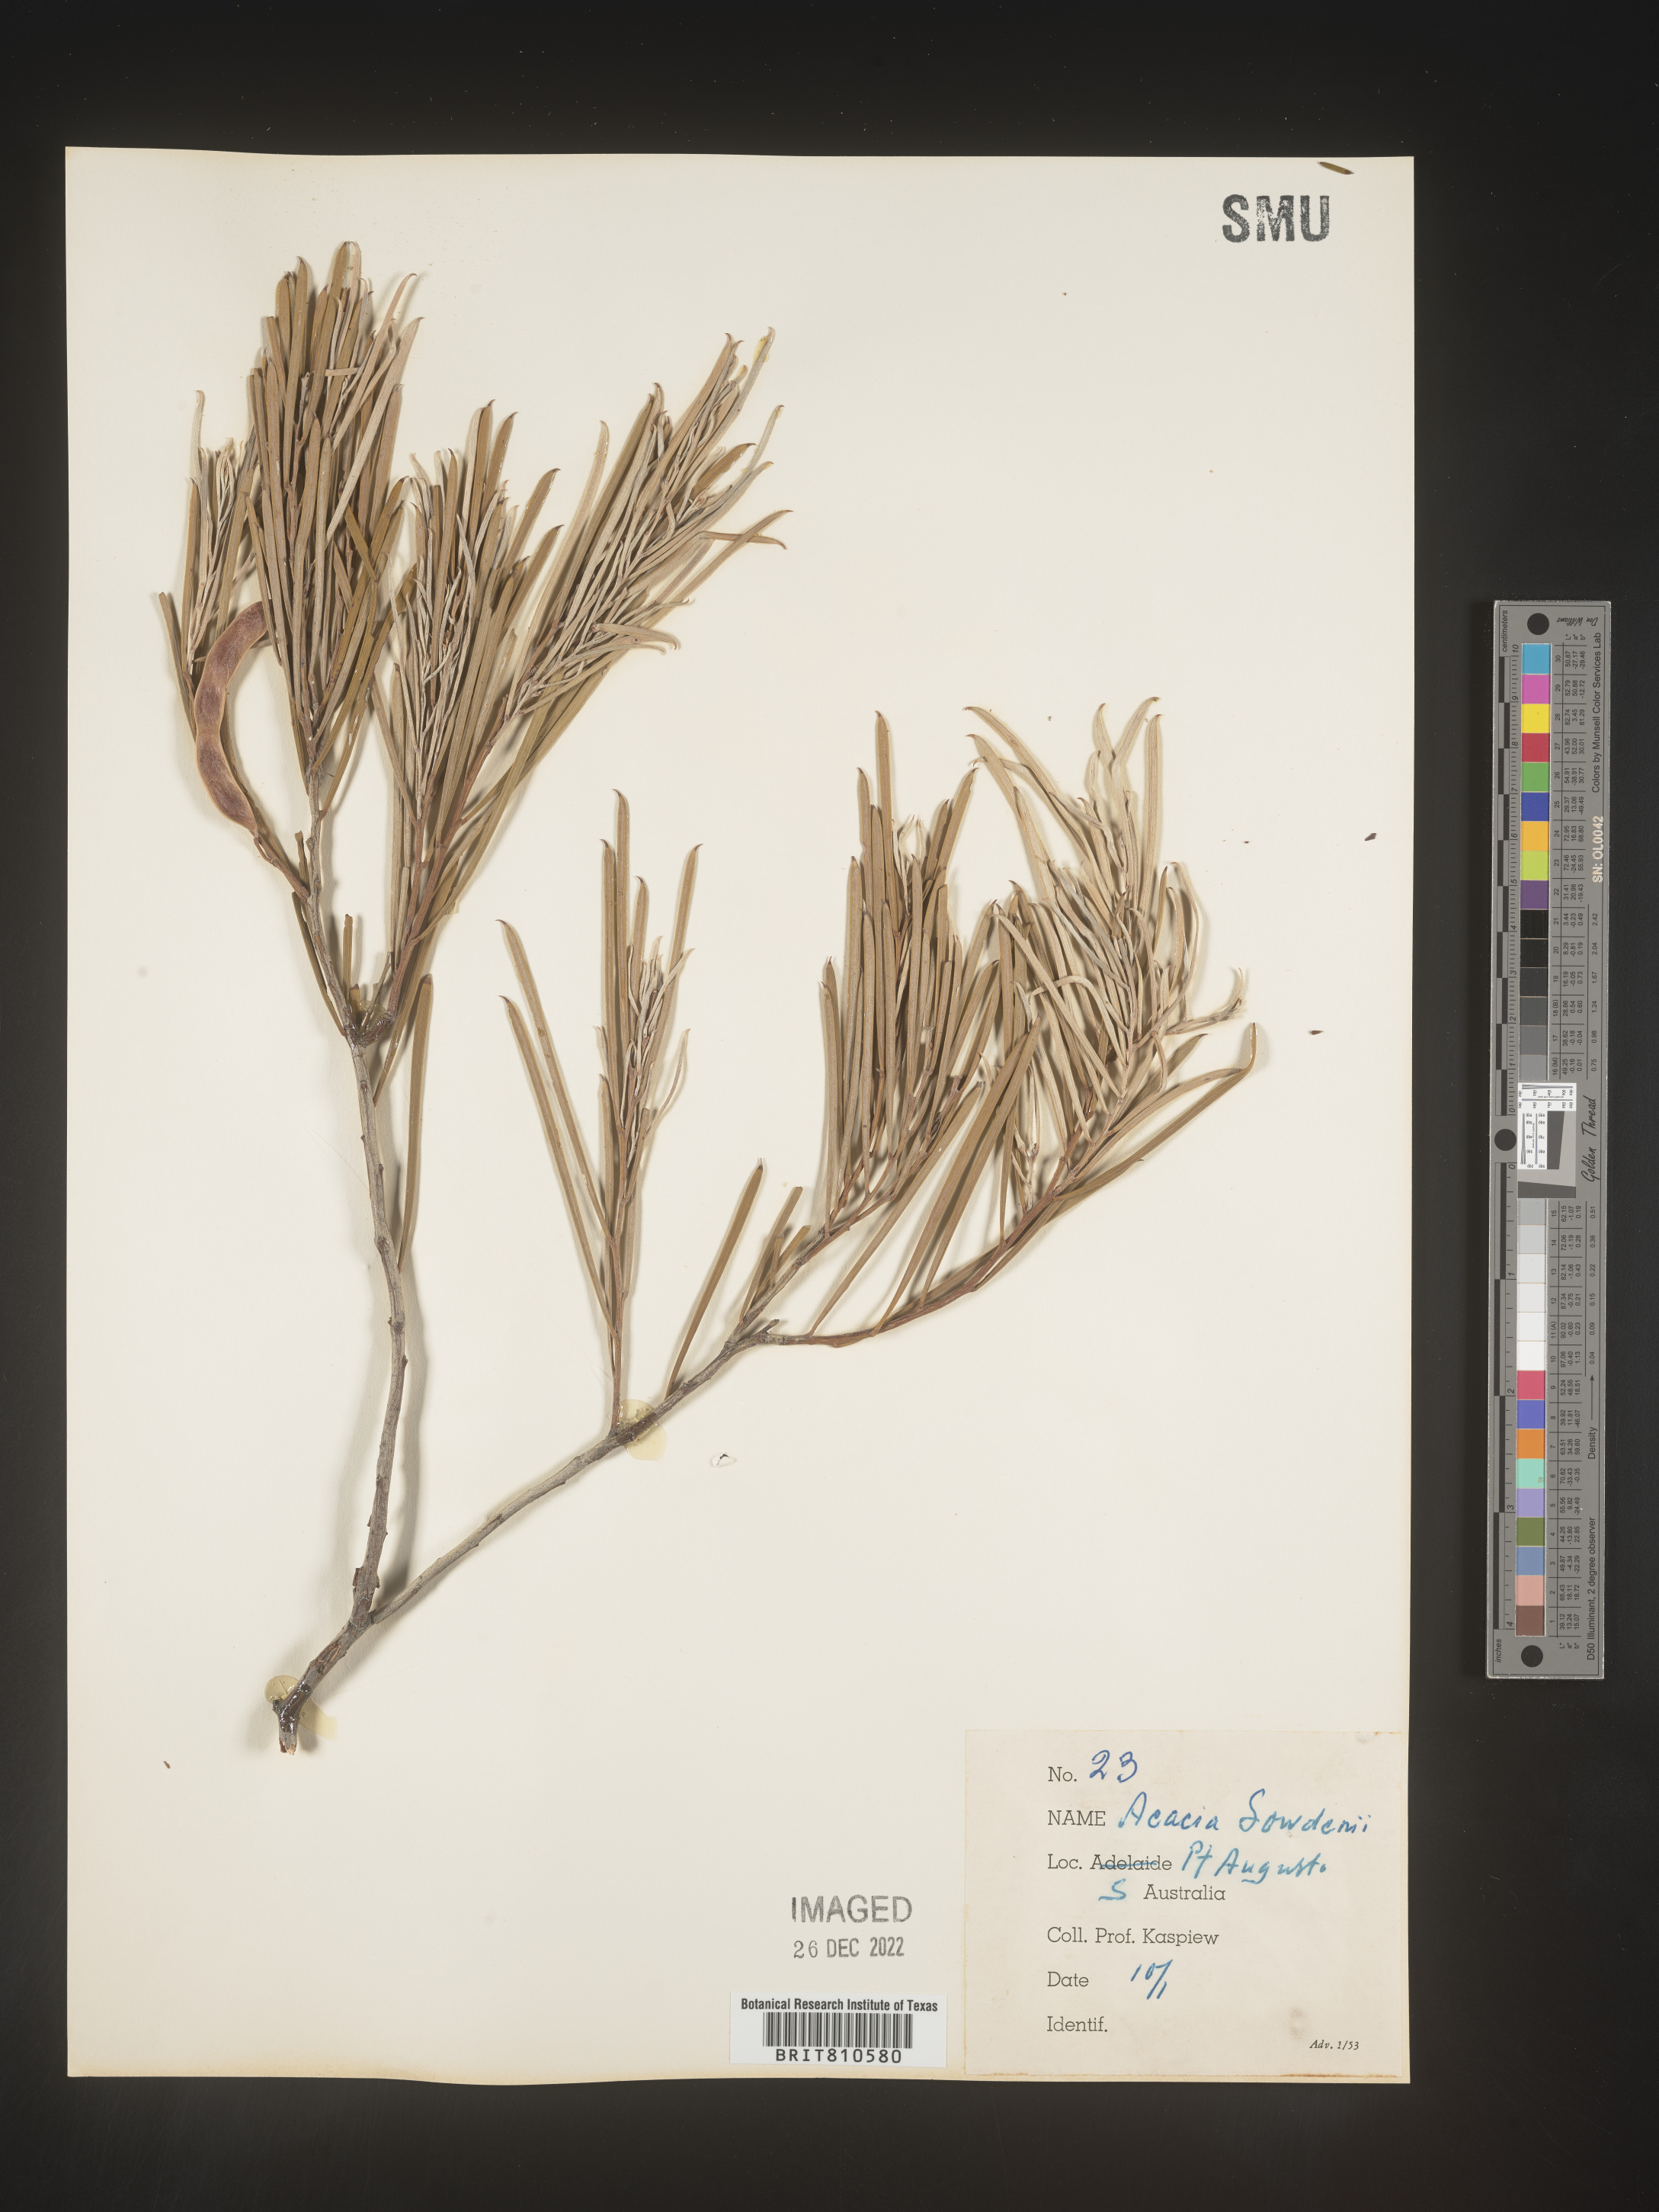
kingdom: Plantae
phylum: Tracheophyta
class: Magnoliopsida
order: Fabales
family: Fabaceae
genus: Acacia
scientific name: Acacia
